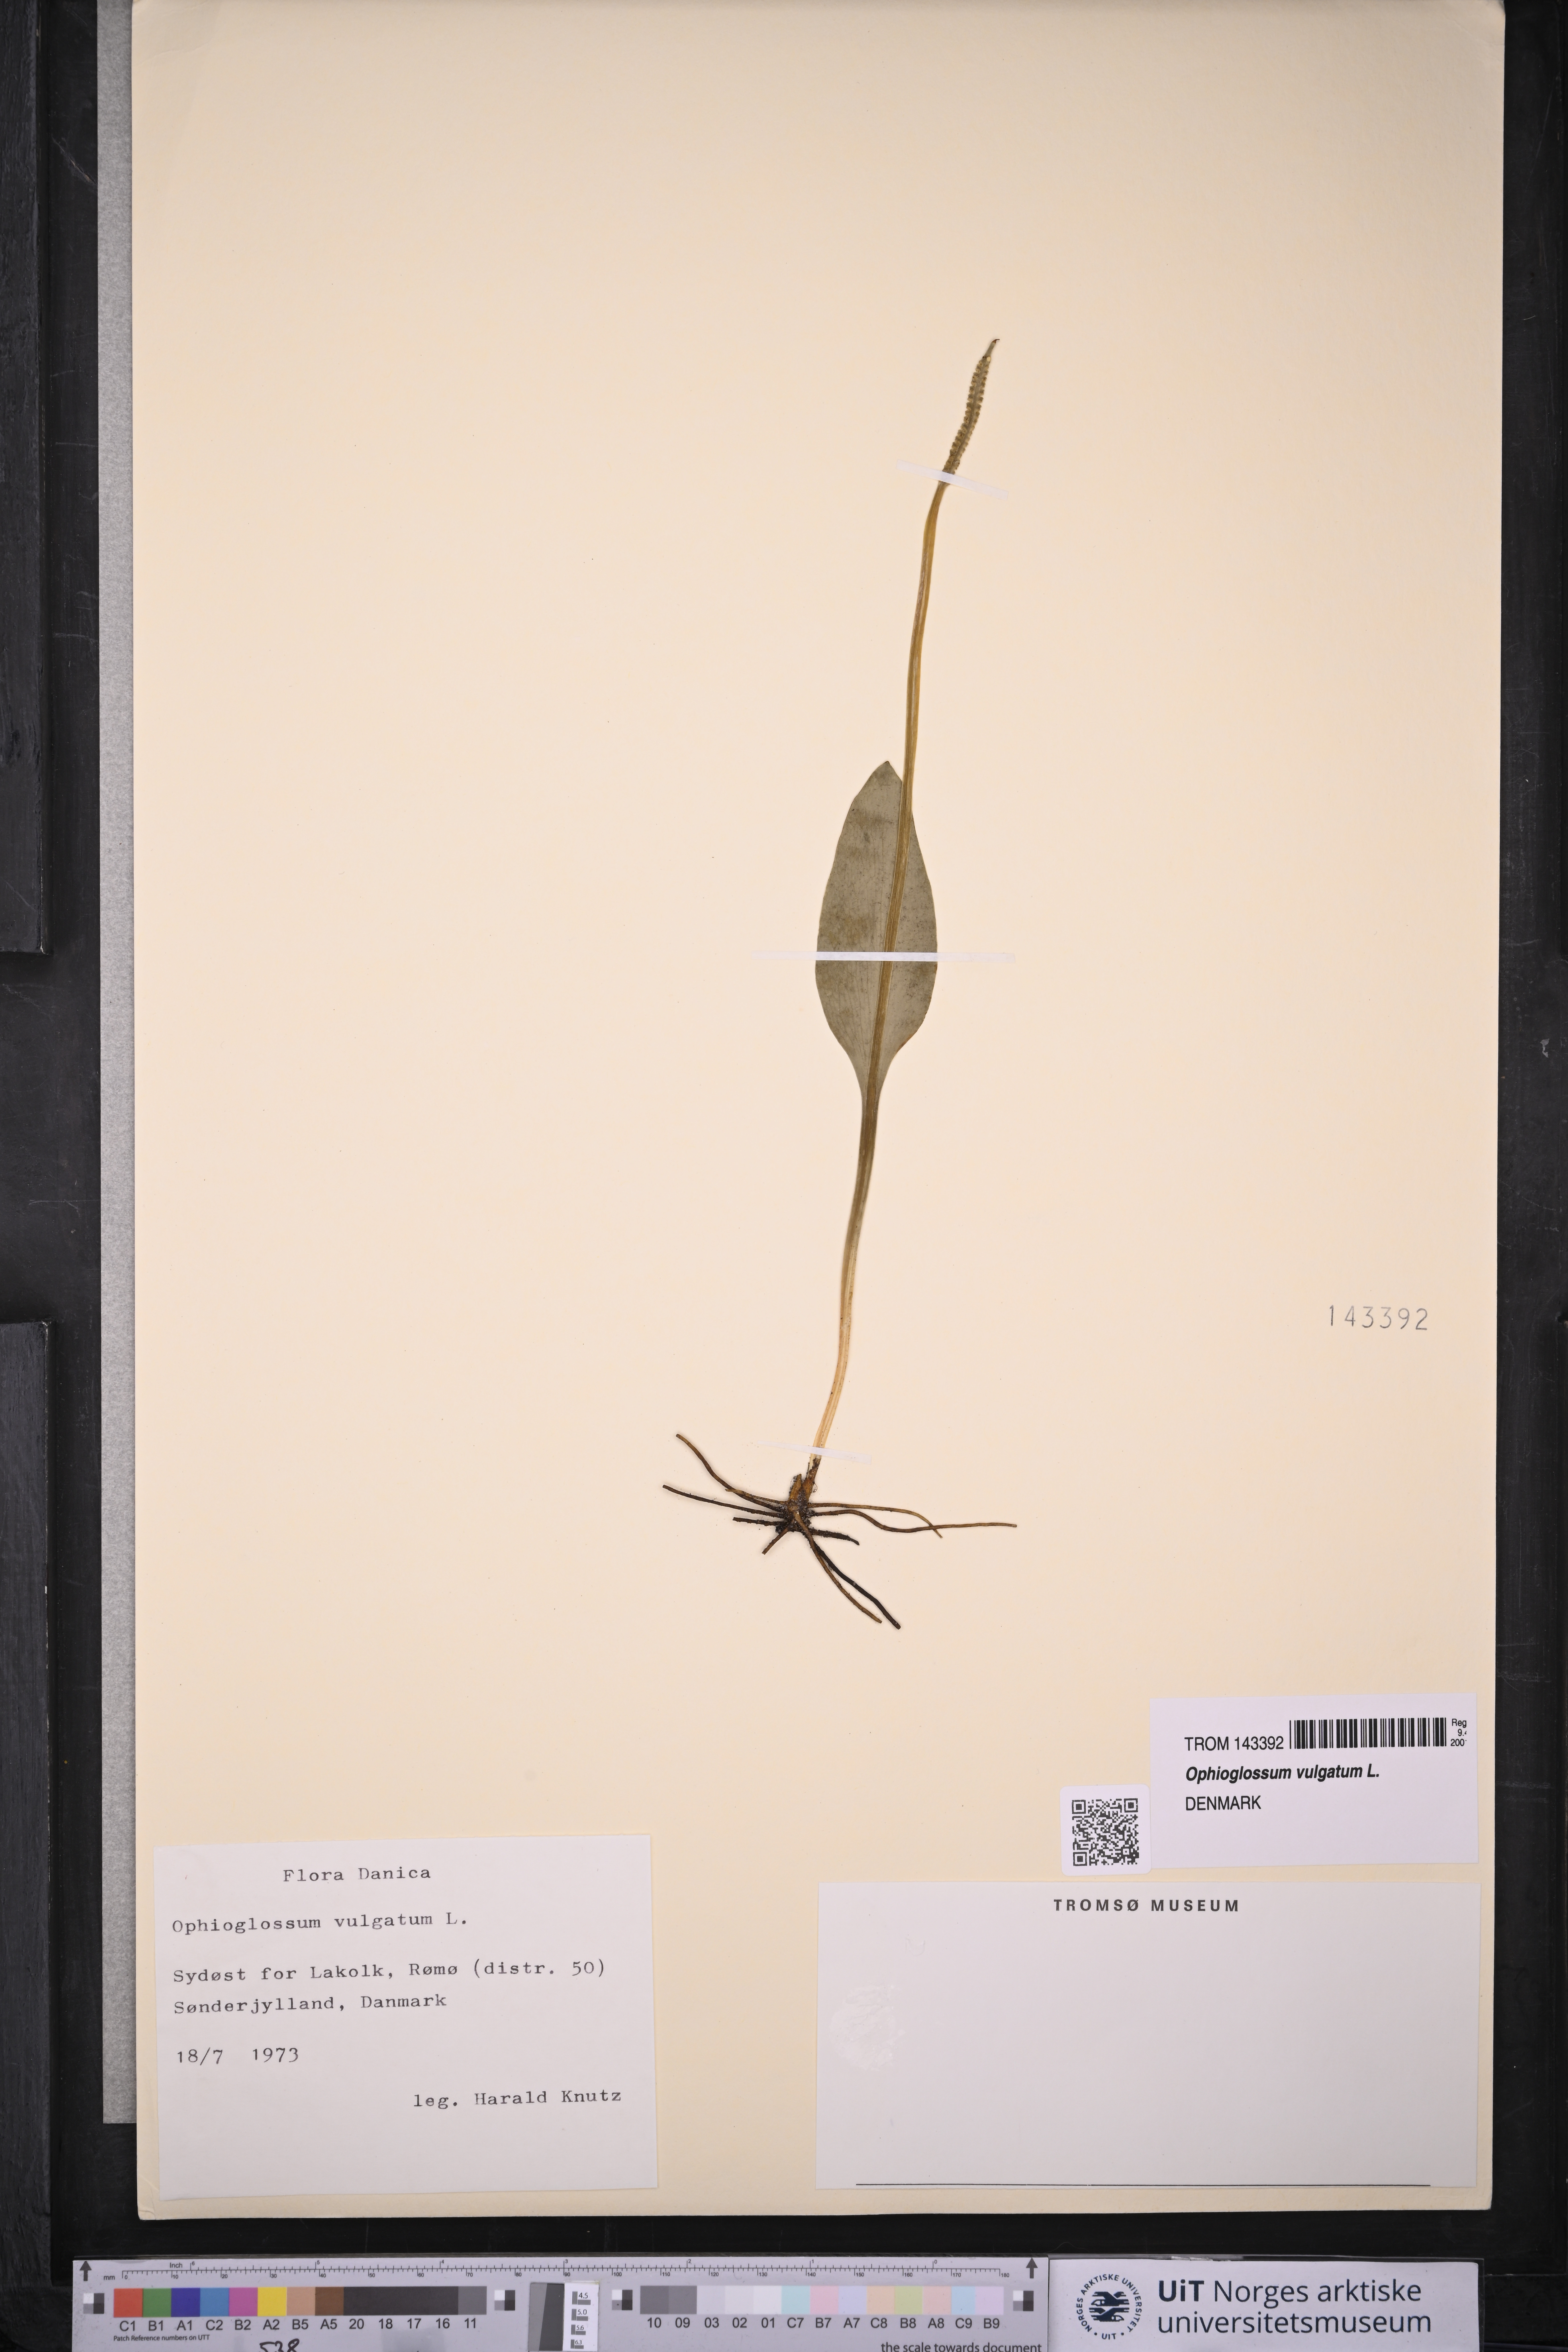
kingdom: Plantae
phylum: Tracheophyta
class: Polypodiopsida
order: Ophioglossales
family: Ophioglossaceae
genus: Ophioglossum
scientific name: Ophioglossum vulgatum
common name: Adder's-tongue
